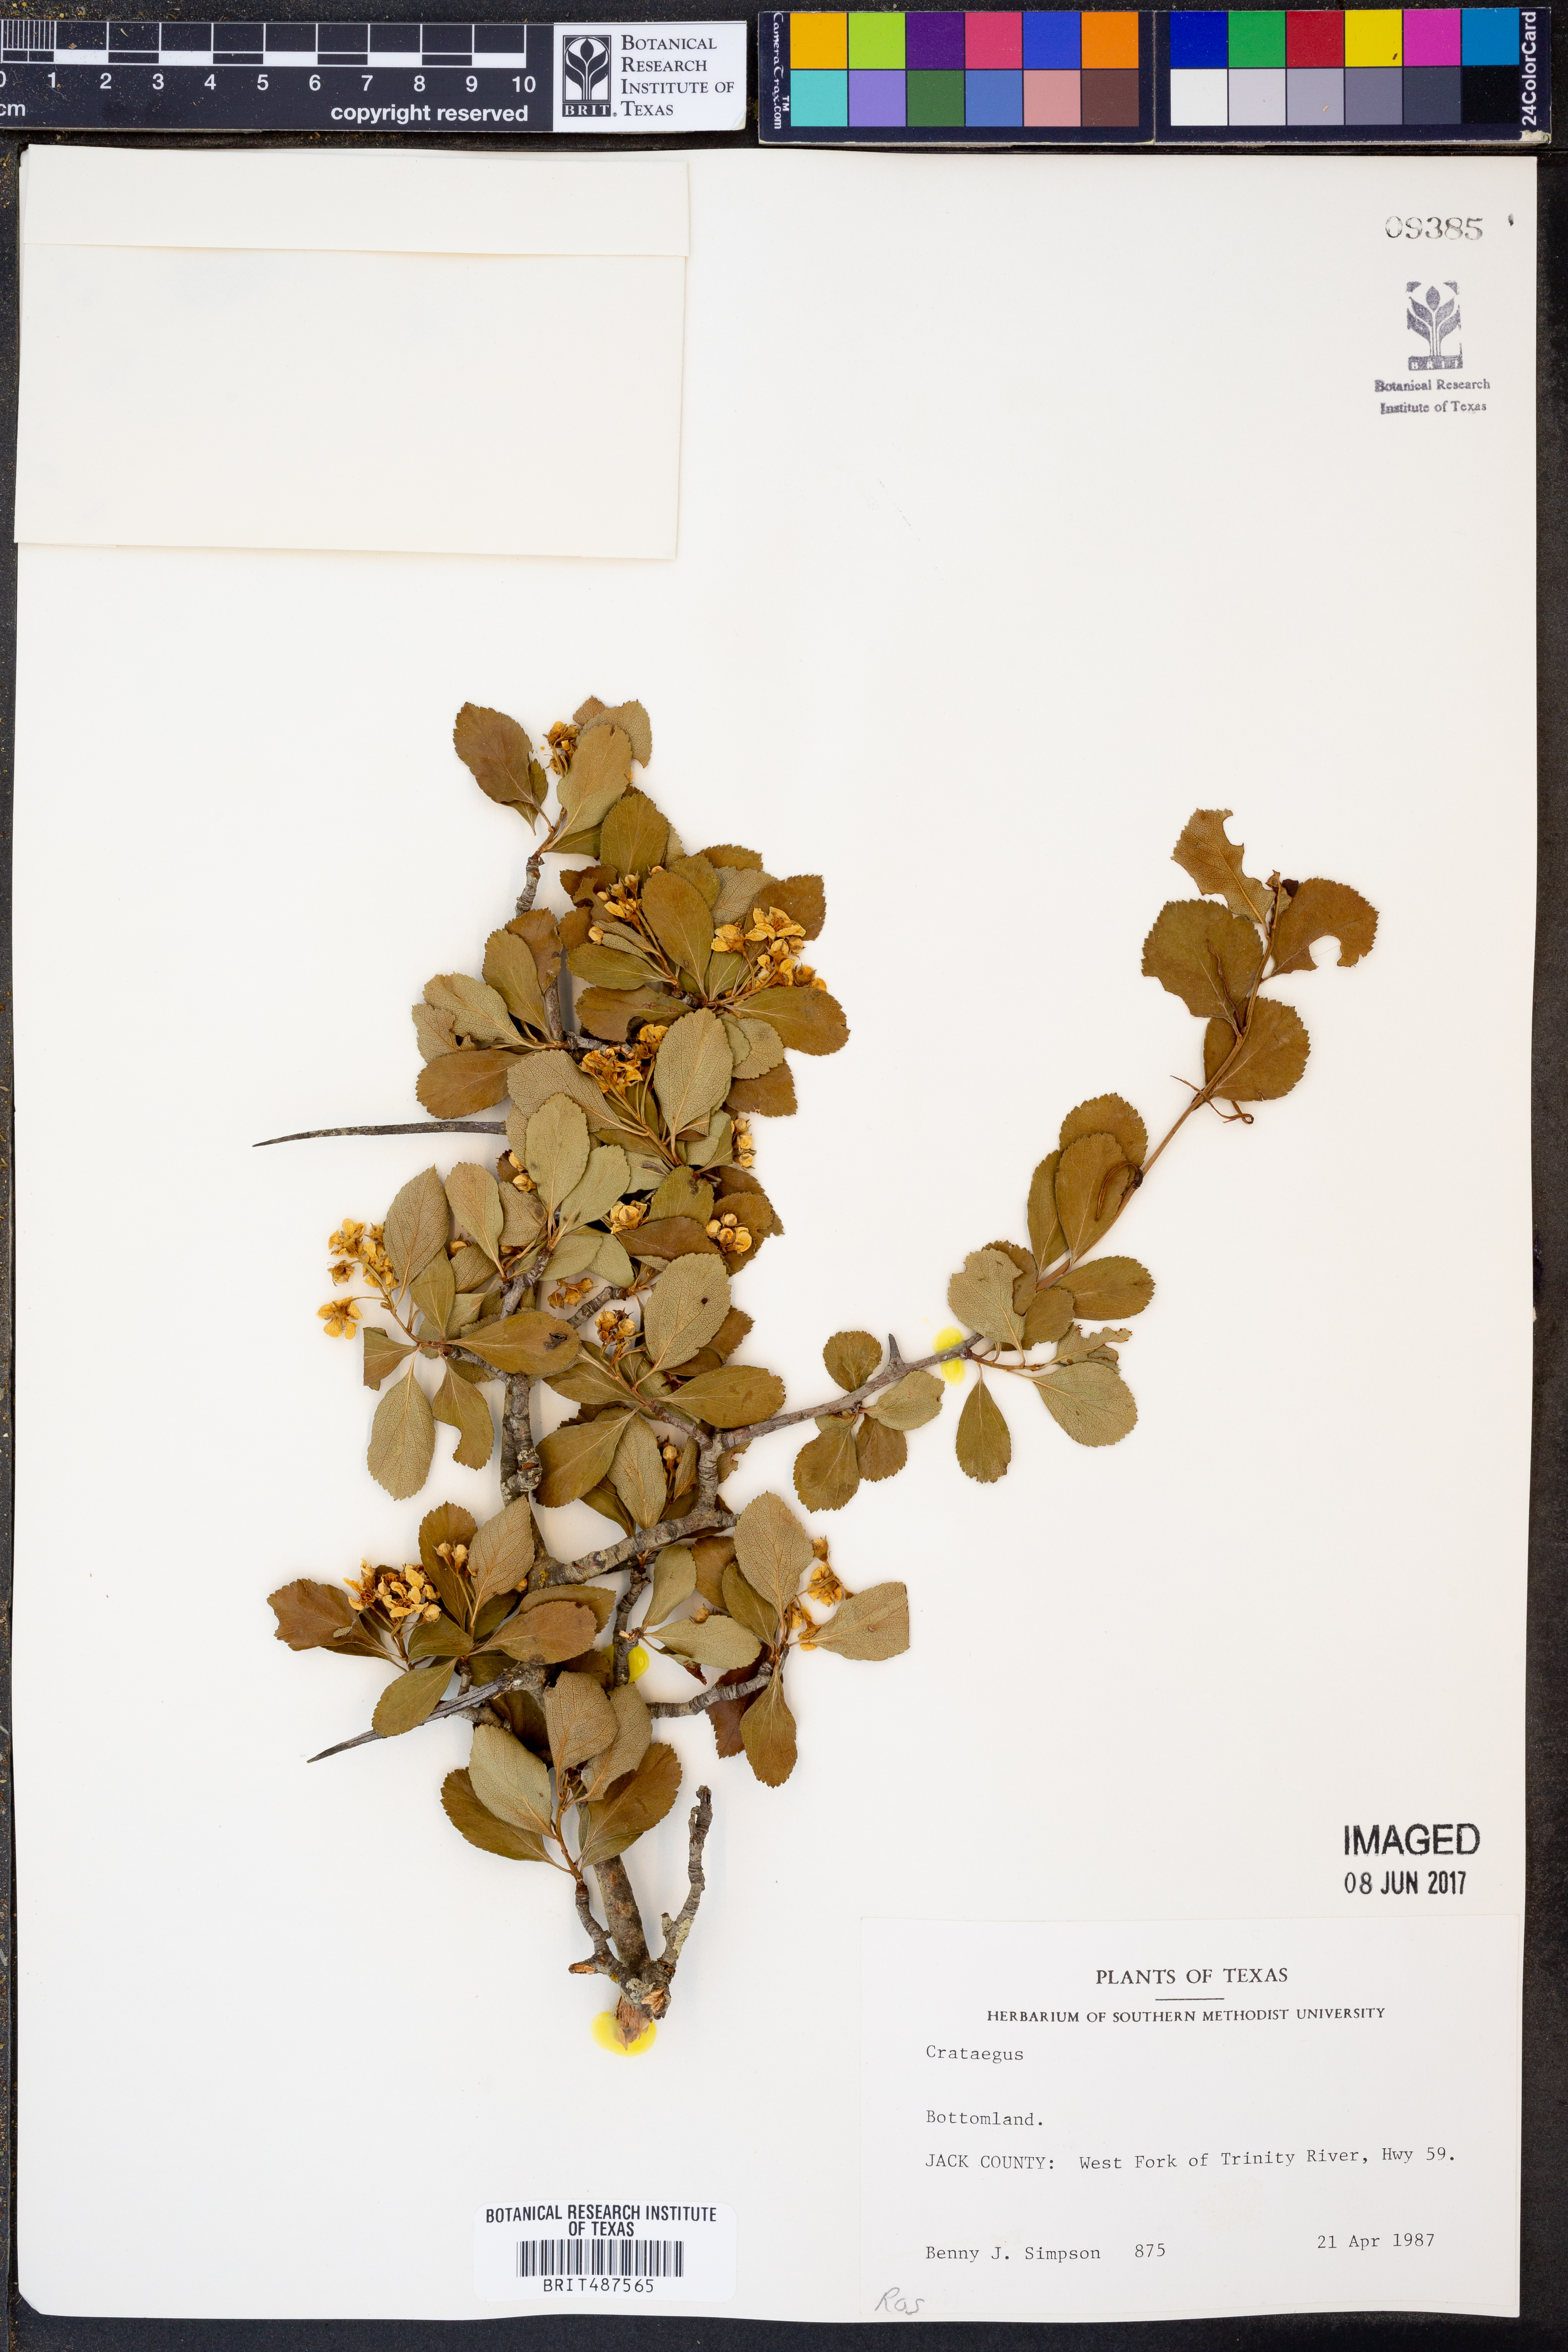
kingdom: Plantae
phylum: Tracheophyta
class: Magnoliopsida
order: Rosales
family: Rosaceae
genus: Crataegus
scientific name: Crataegus
